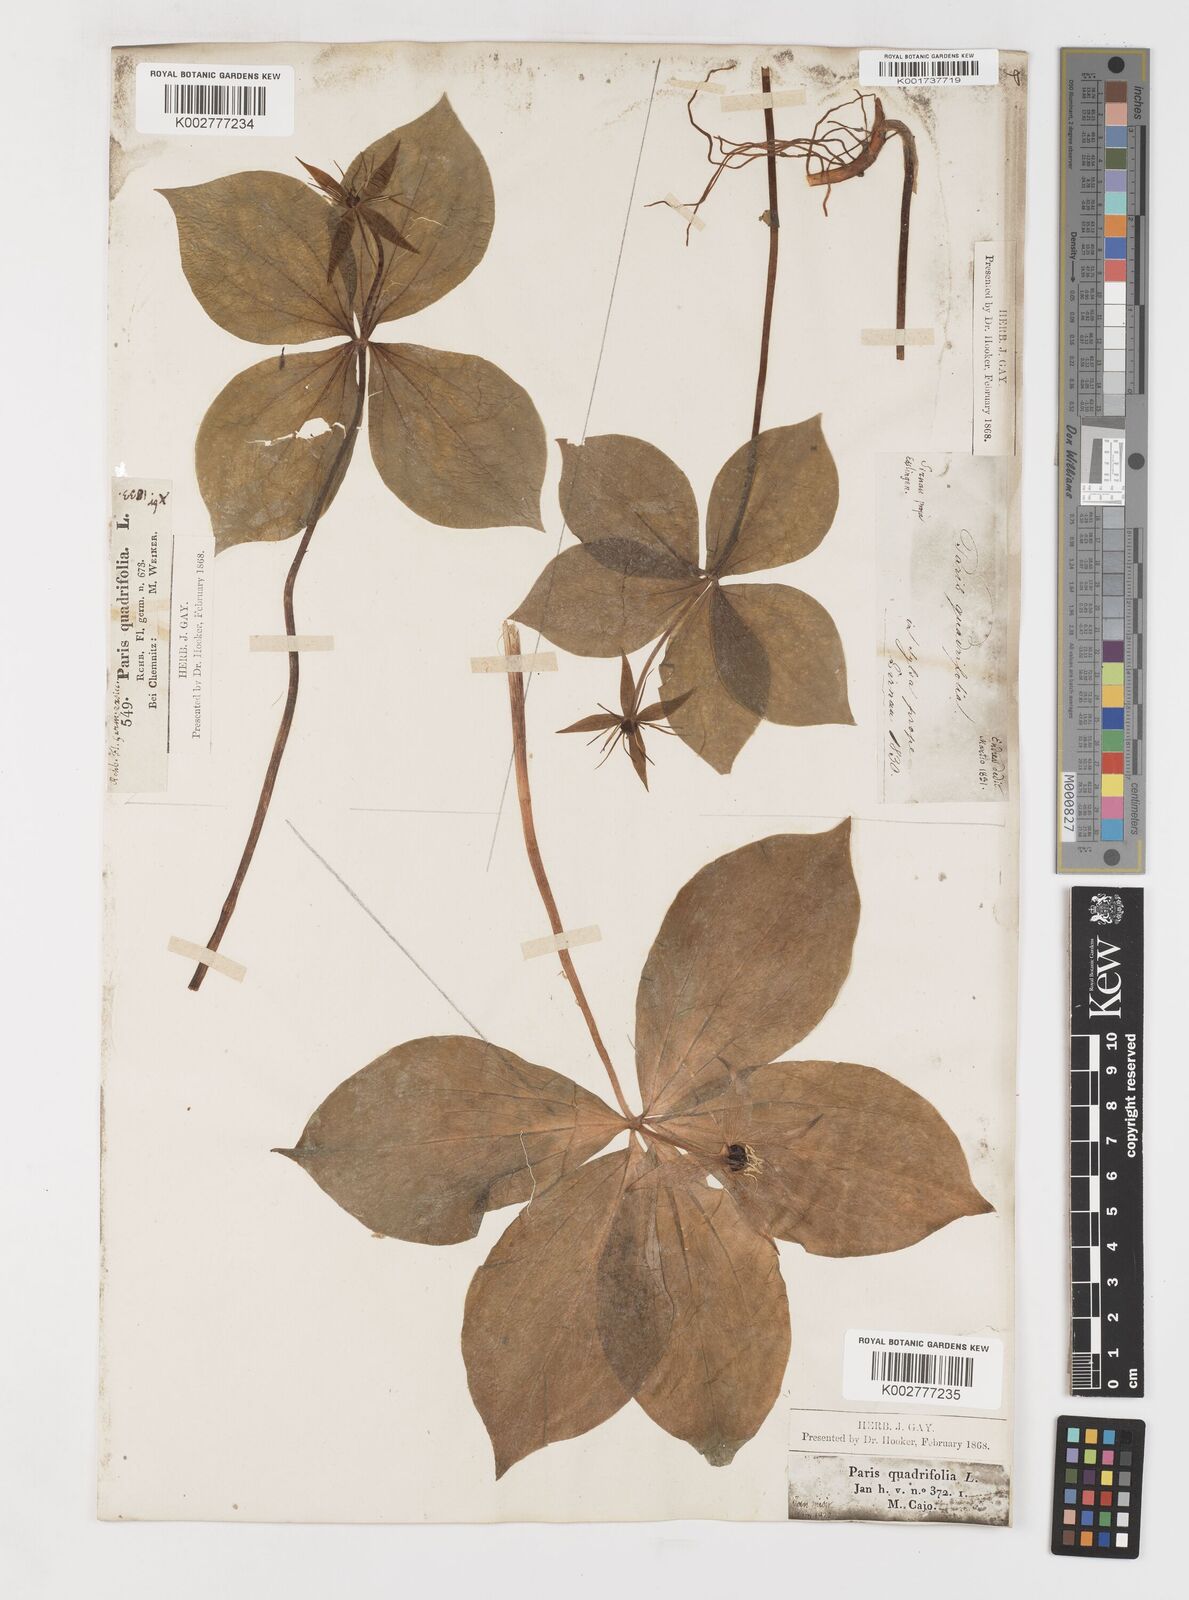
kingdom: Plantae
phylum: Tracheophyta
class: Liliopsida
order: Liliales
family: Melanthiaceae
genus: Paris
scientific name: Paris
